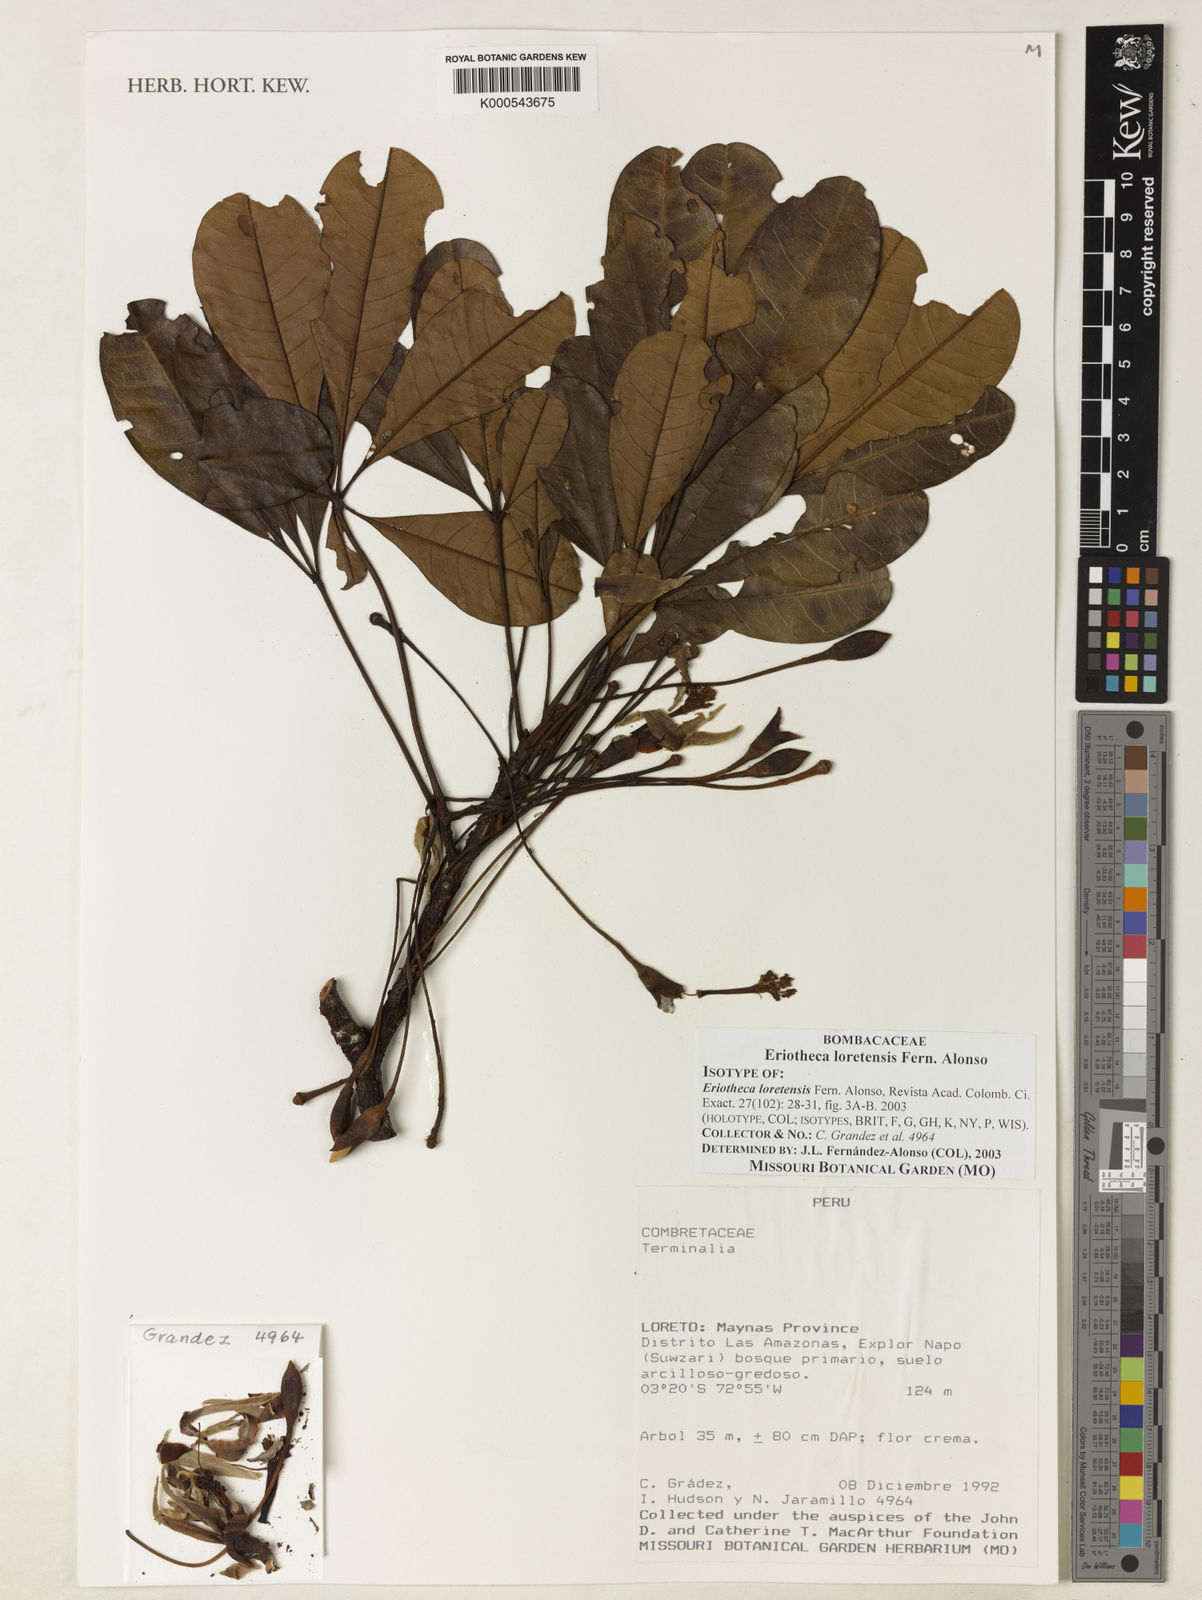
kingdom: Plantae
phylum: Tracheophyta
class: Magnoliopsida
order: Malvales
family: Malvaceae
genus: Eriotheca
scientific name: Eriotheca loretensis
